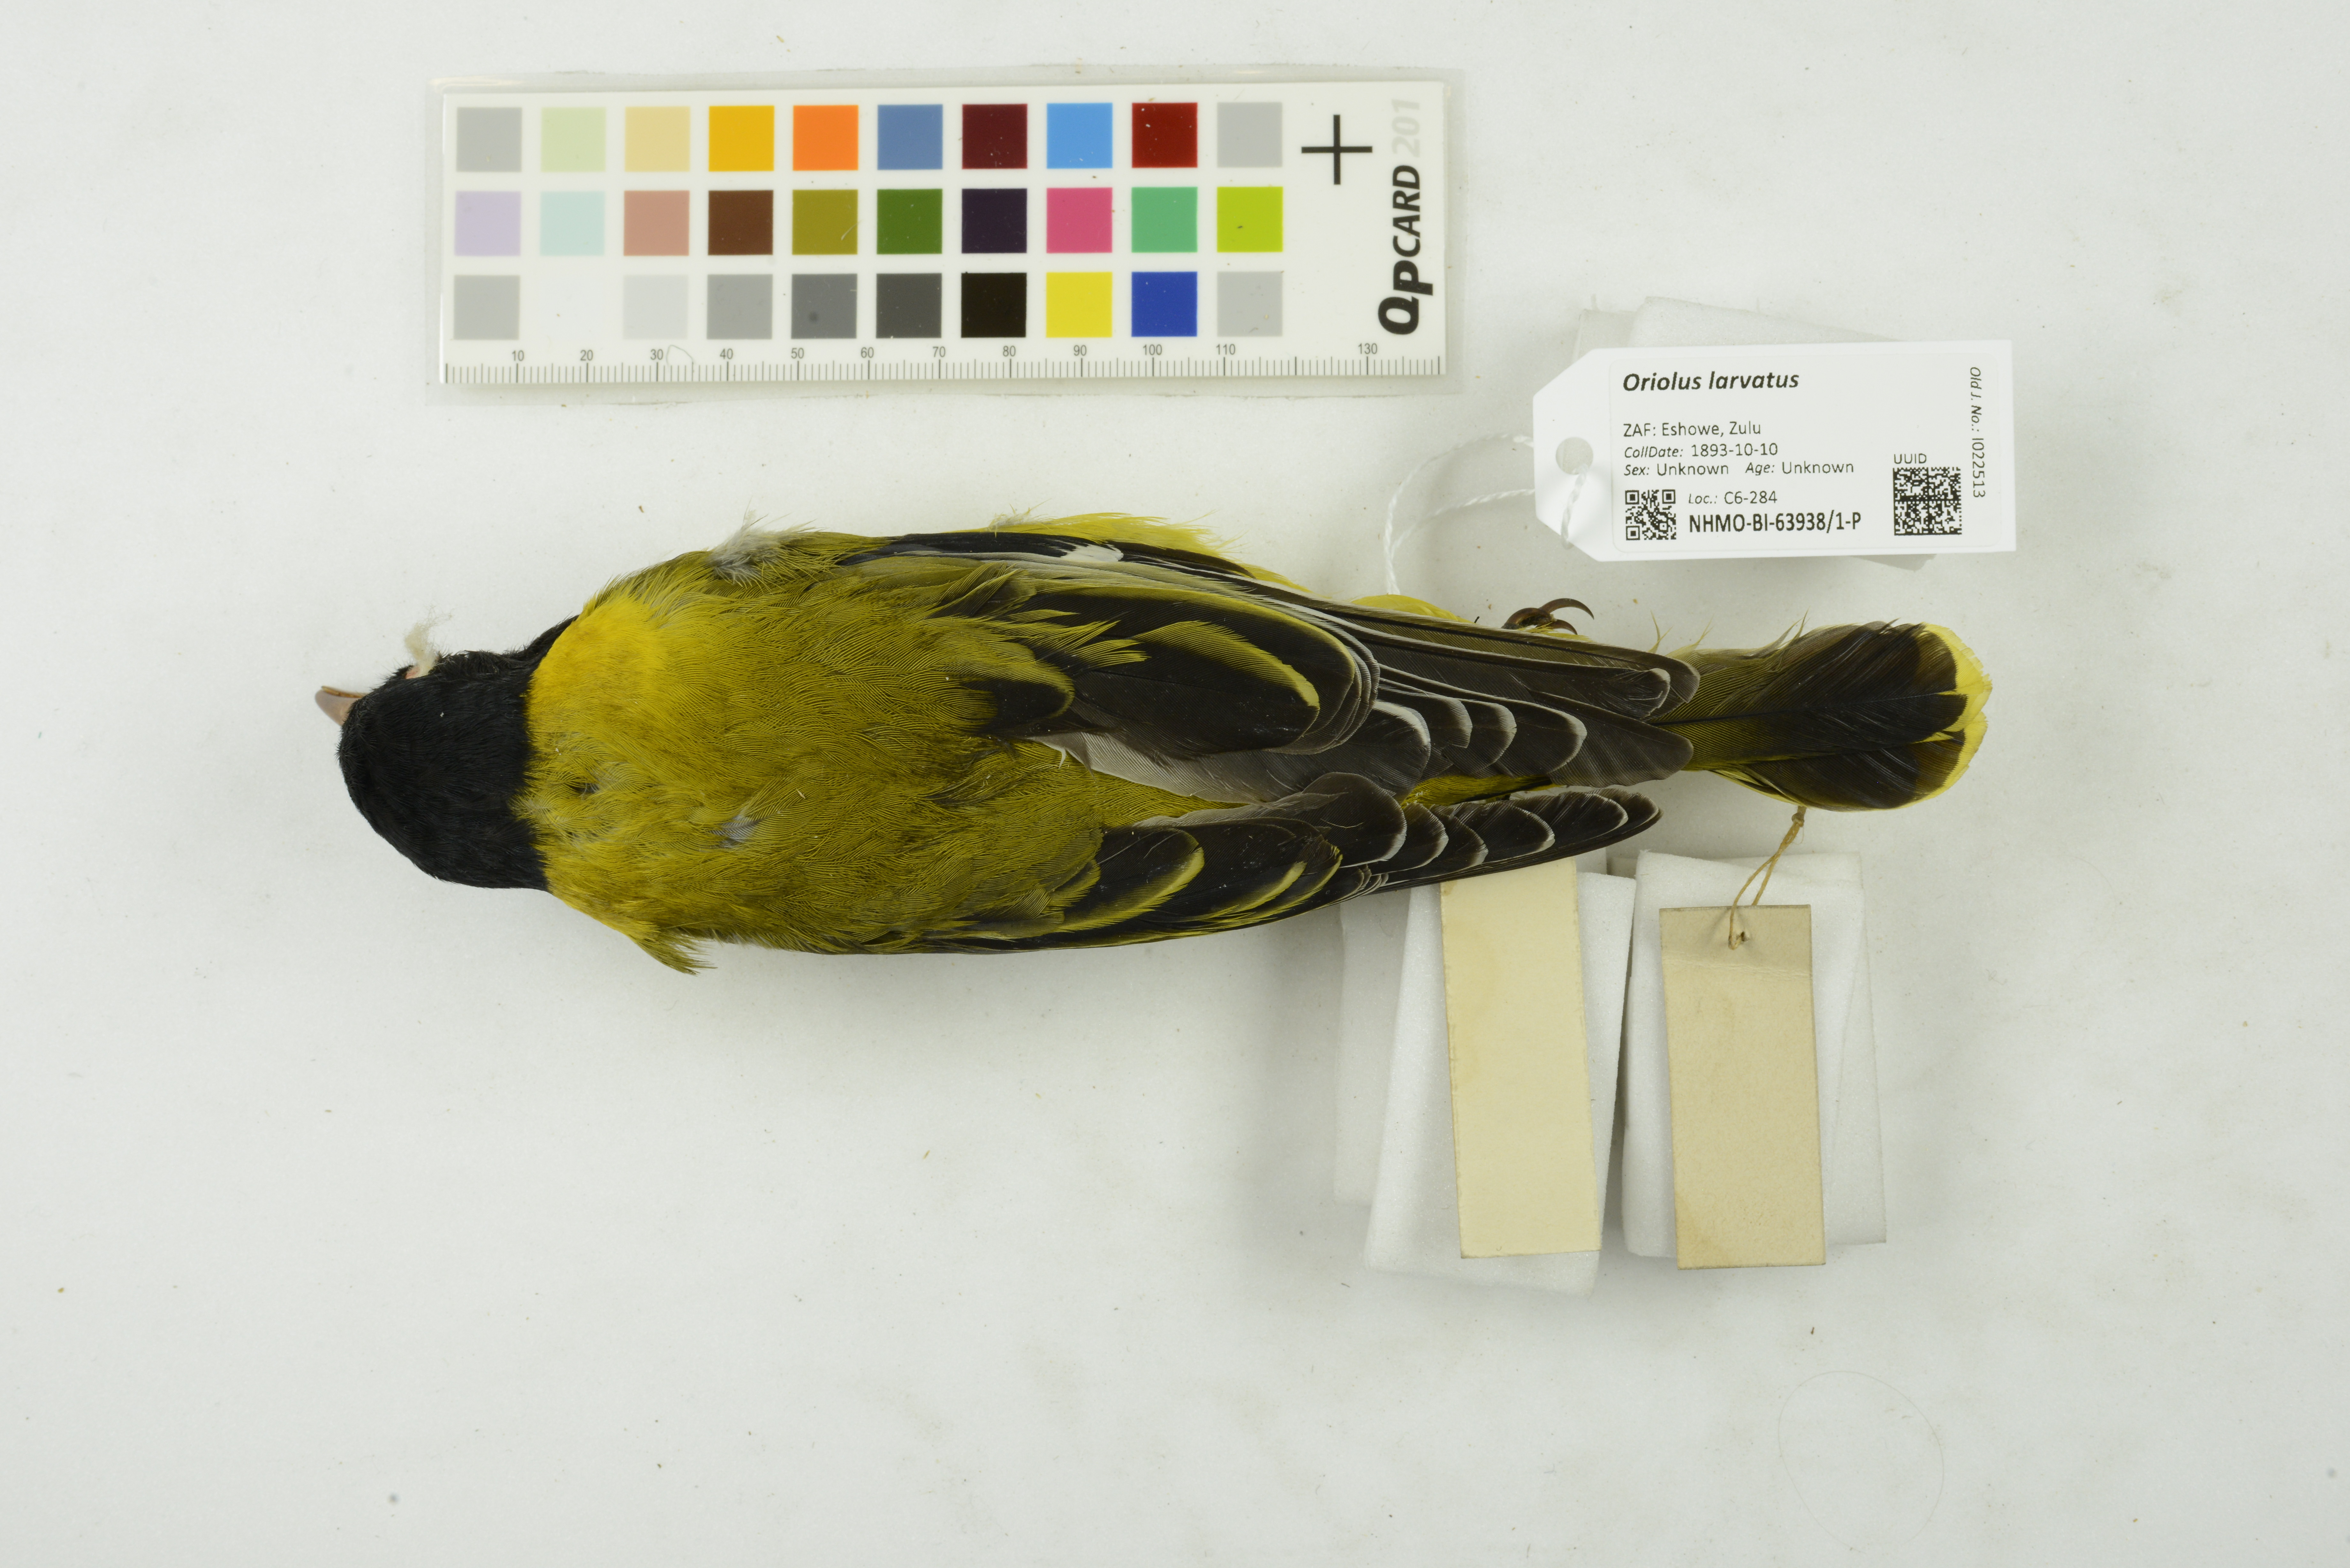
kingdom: Animalia
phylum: Chordata
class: Aves
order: Passeriformes
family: Oriolidae
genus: Oriolus
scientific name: Oriolus larvatus
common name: Black-headed oriole
